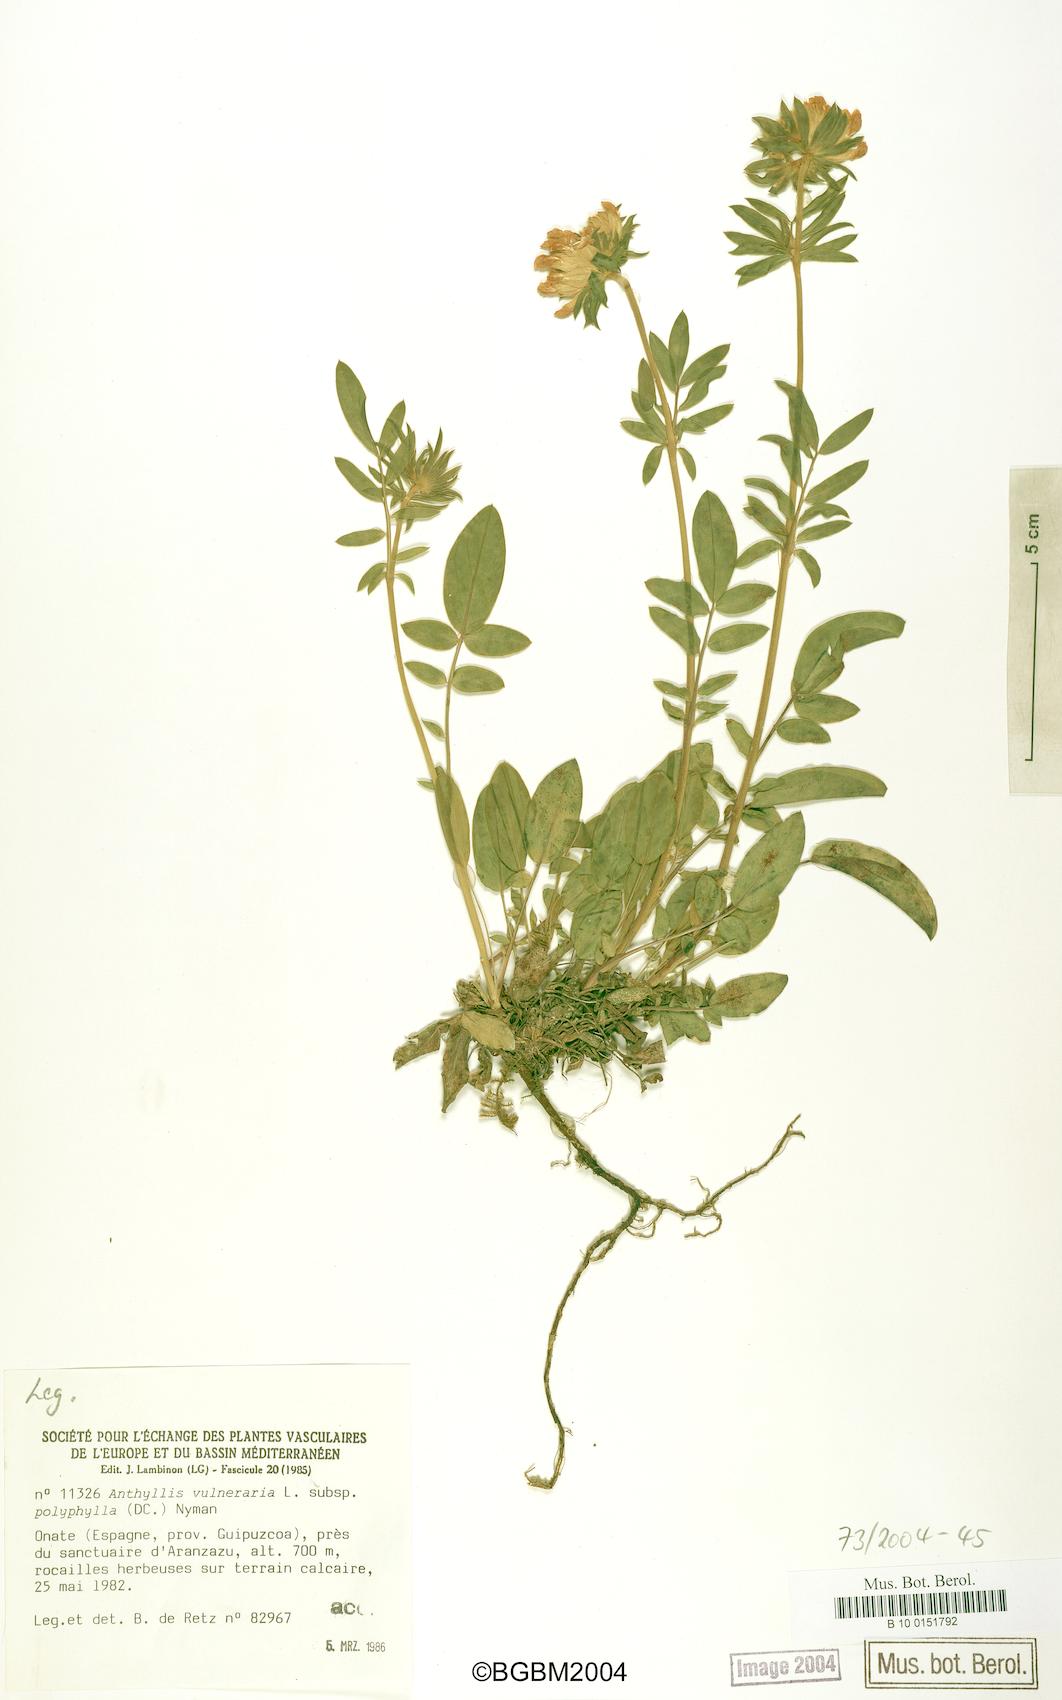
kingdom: Plantae
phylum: Tracheophyta
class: Magnoliopsida
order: Fabales
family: Fabaceae
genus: Anthyllis
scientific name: Anthyllis vulneraria
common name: Kidney vetch
